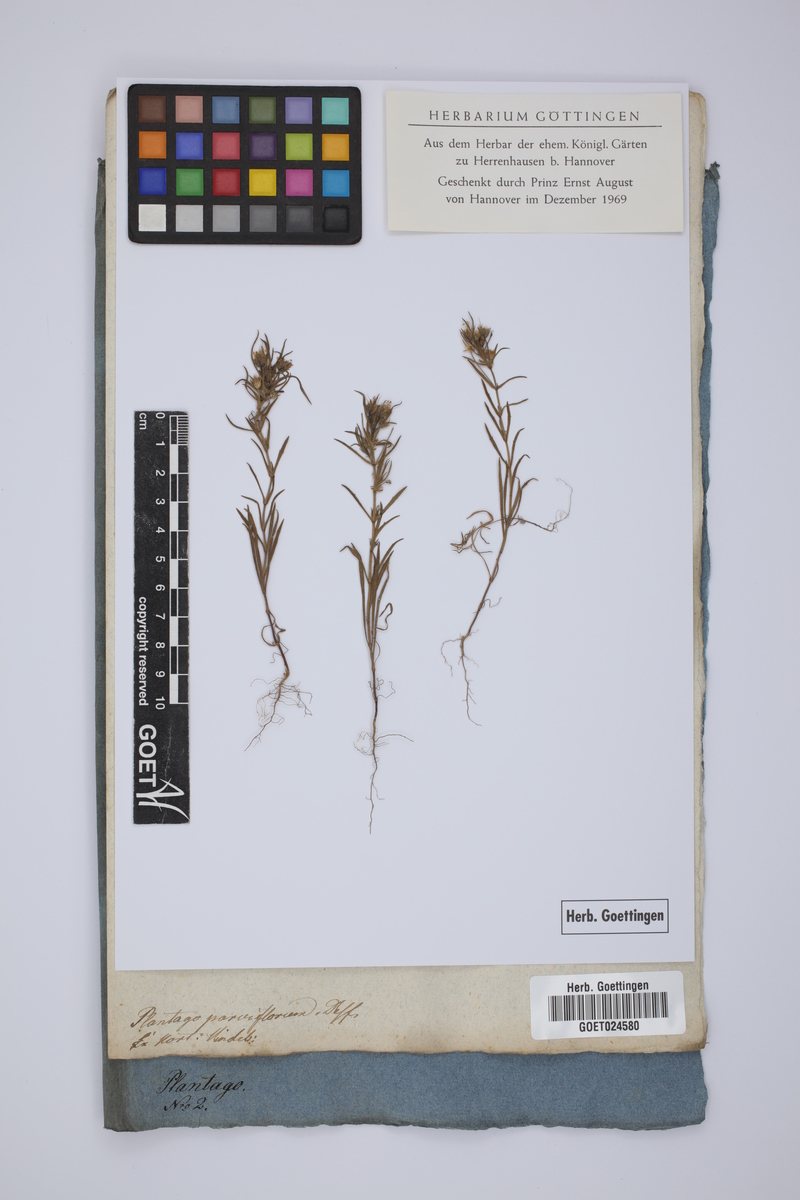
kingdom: Plantae
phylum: Tracheophyta
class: Magnoliopsida
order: Lamiales
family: Plantaginaceae
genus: Plantago
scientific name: Plantago afra
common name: Glandular plantain
